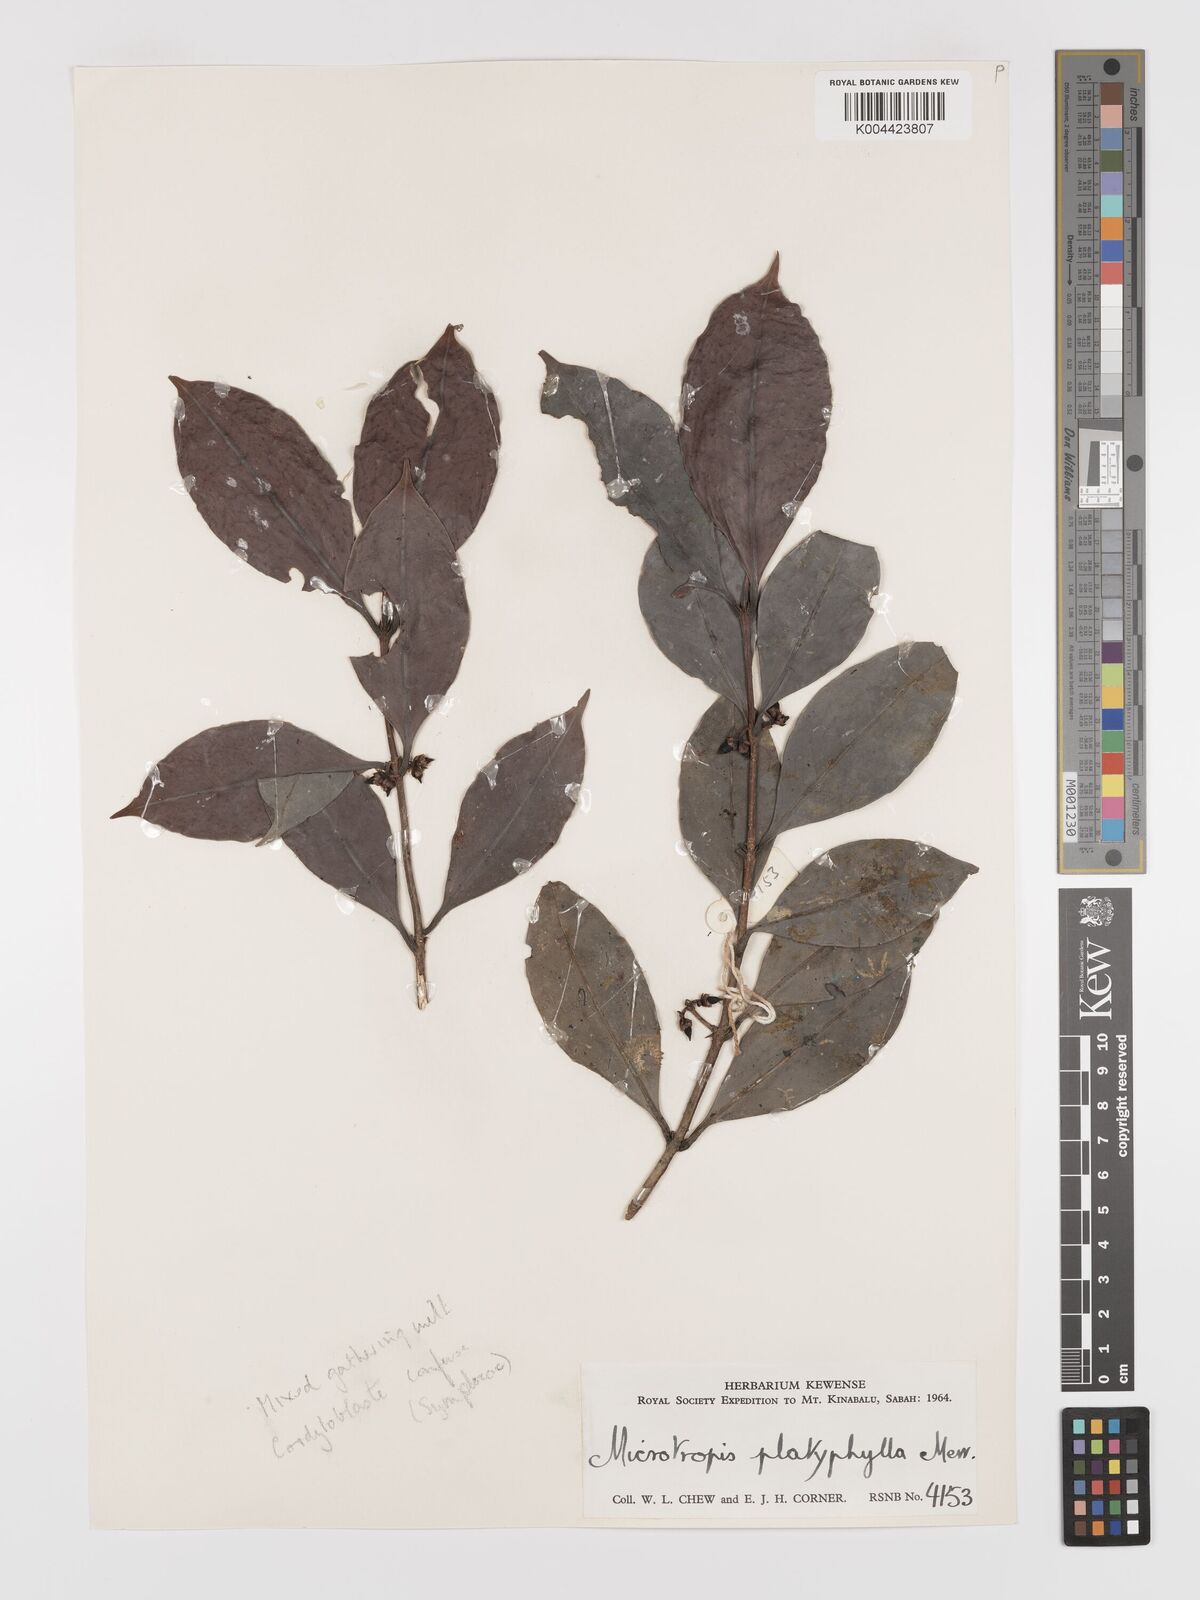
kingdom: Plantae
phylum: Tracheophyta
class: Magnoliopsida
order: Celastrales
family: Celastraceae
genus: Microtropis
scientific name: Microtropis platyphylla
